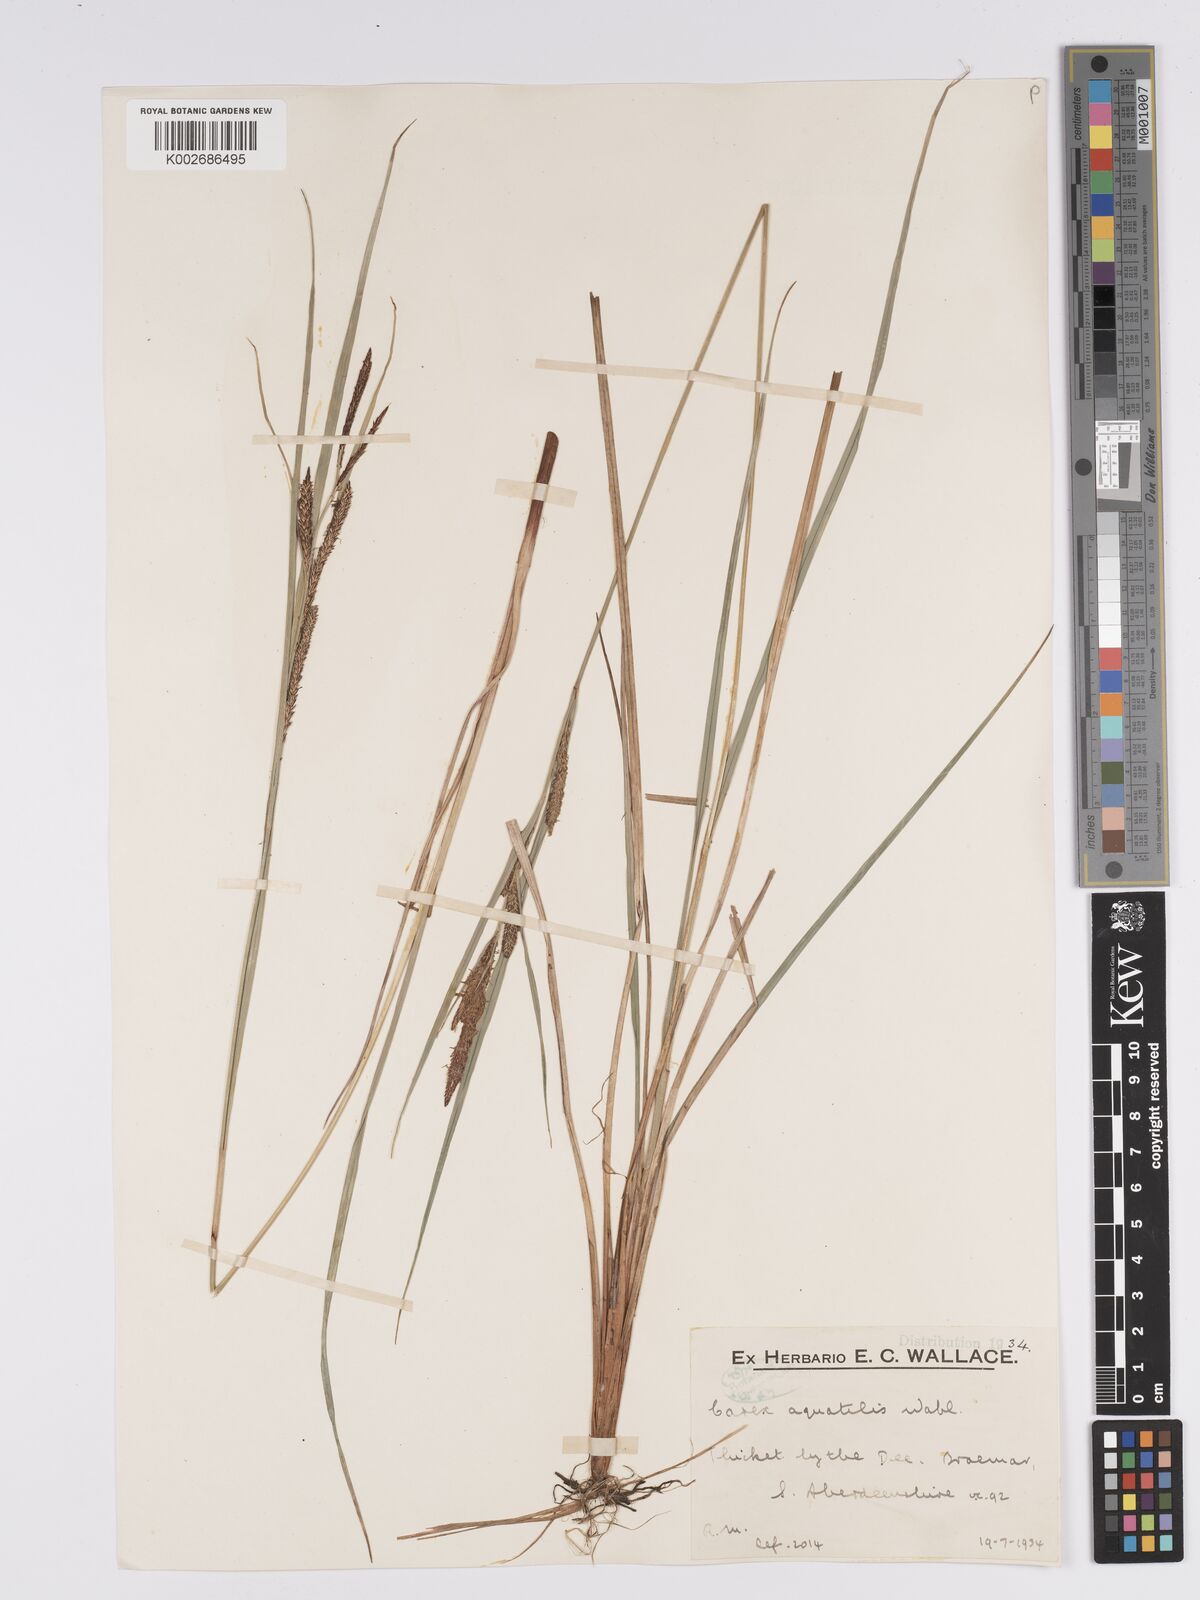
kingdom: Plantae
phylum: Tracheophyta
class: Liliopsida
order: Poales
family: Cyperaceae
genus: Carex
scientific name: Carex aquatilis
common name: Water sedge
